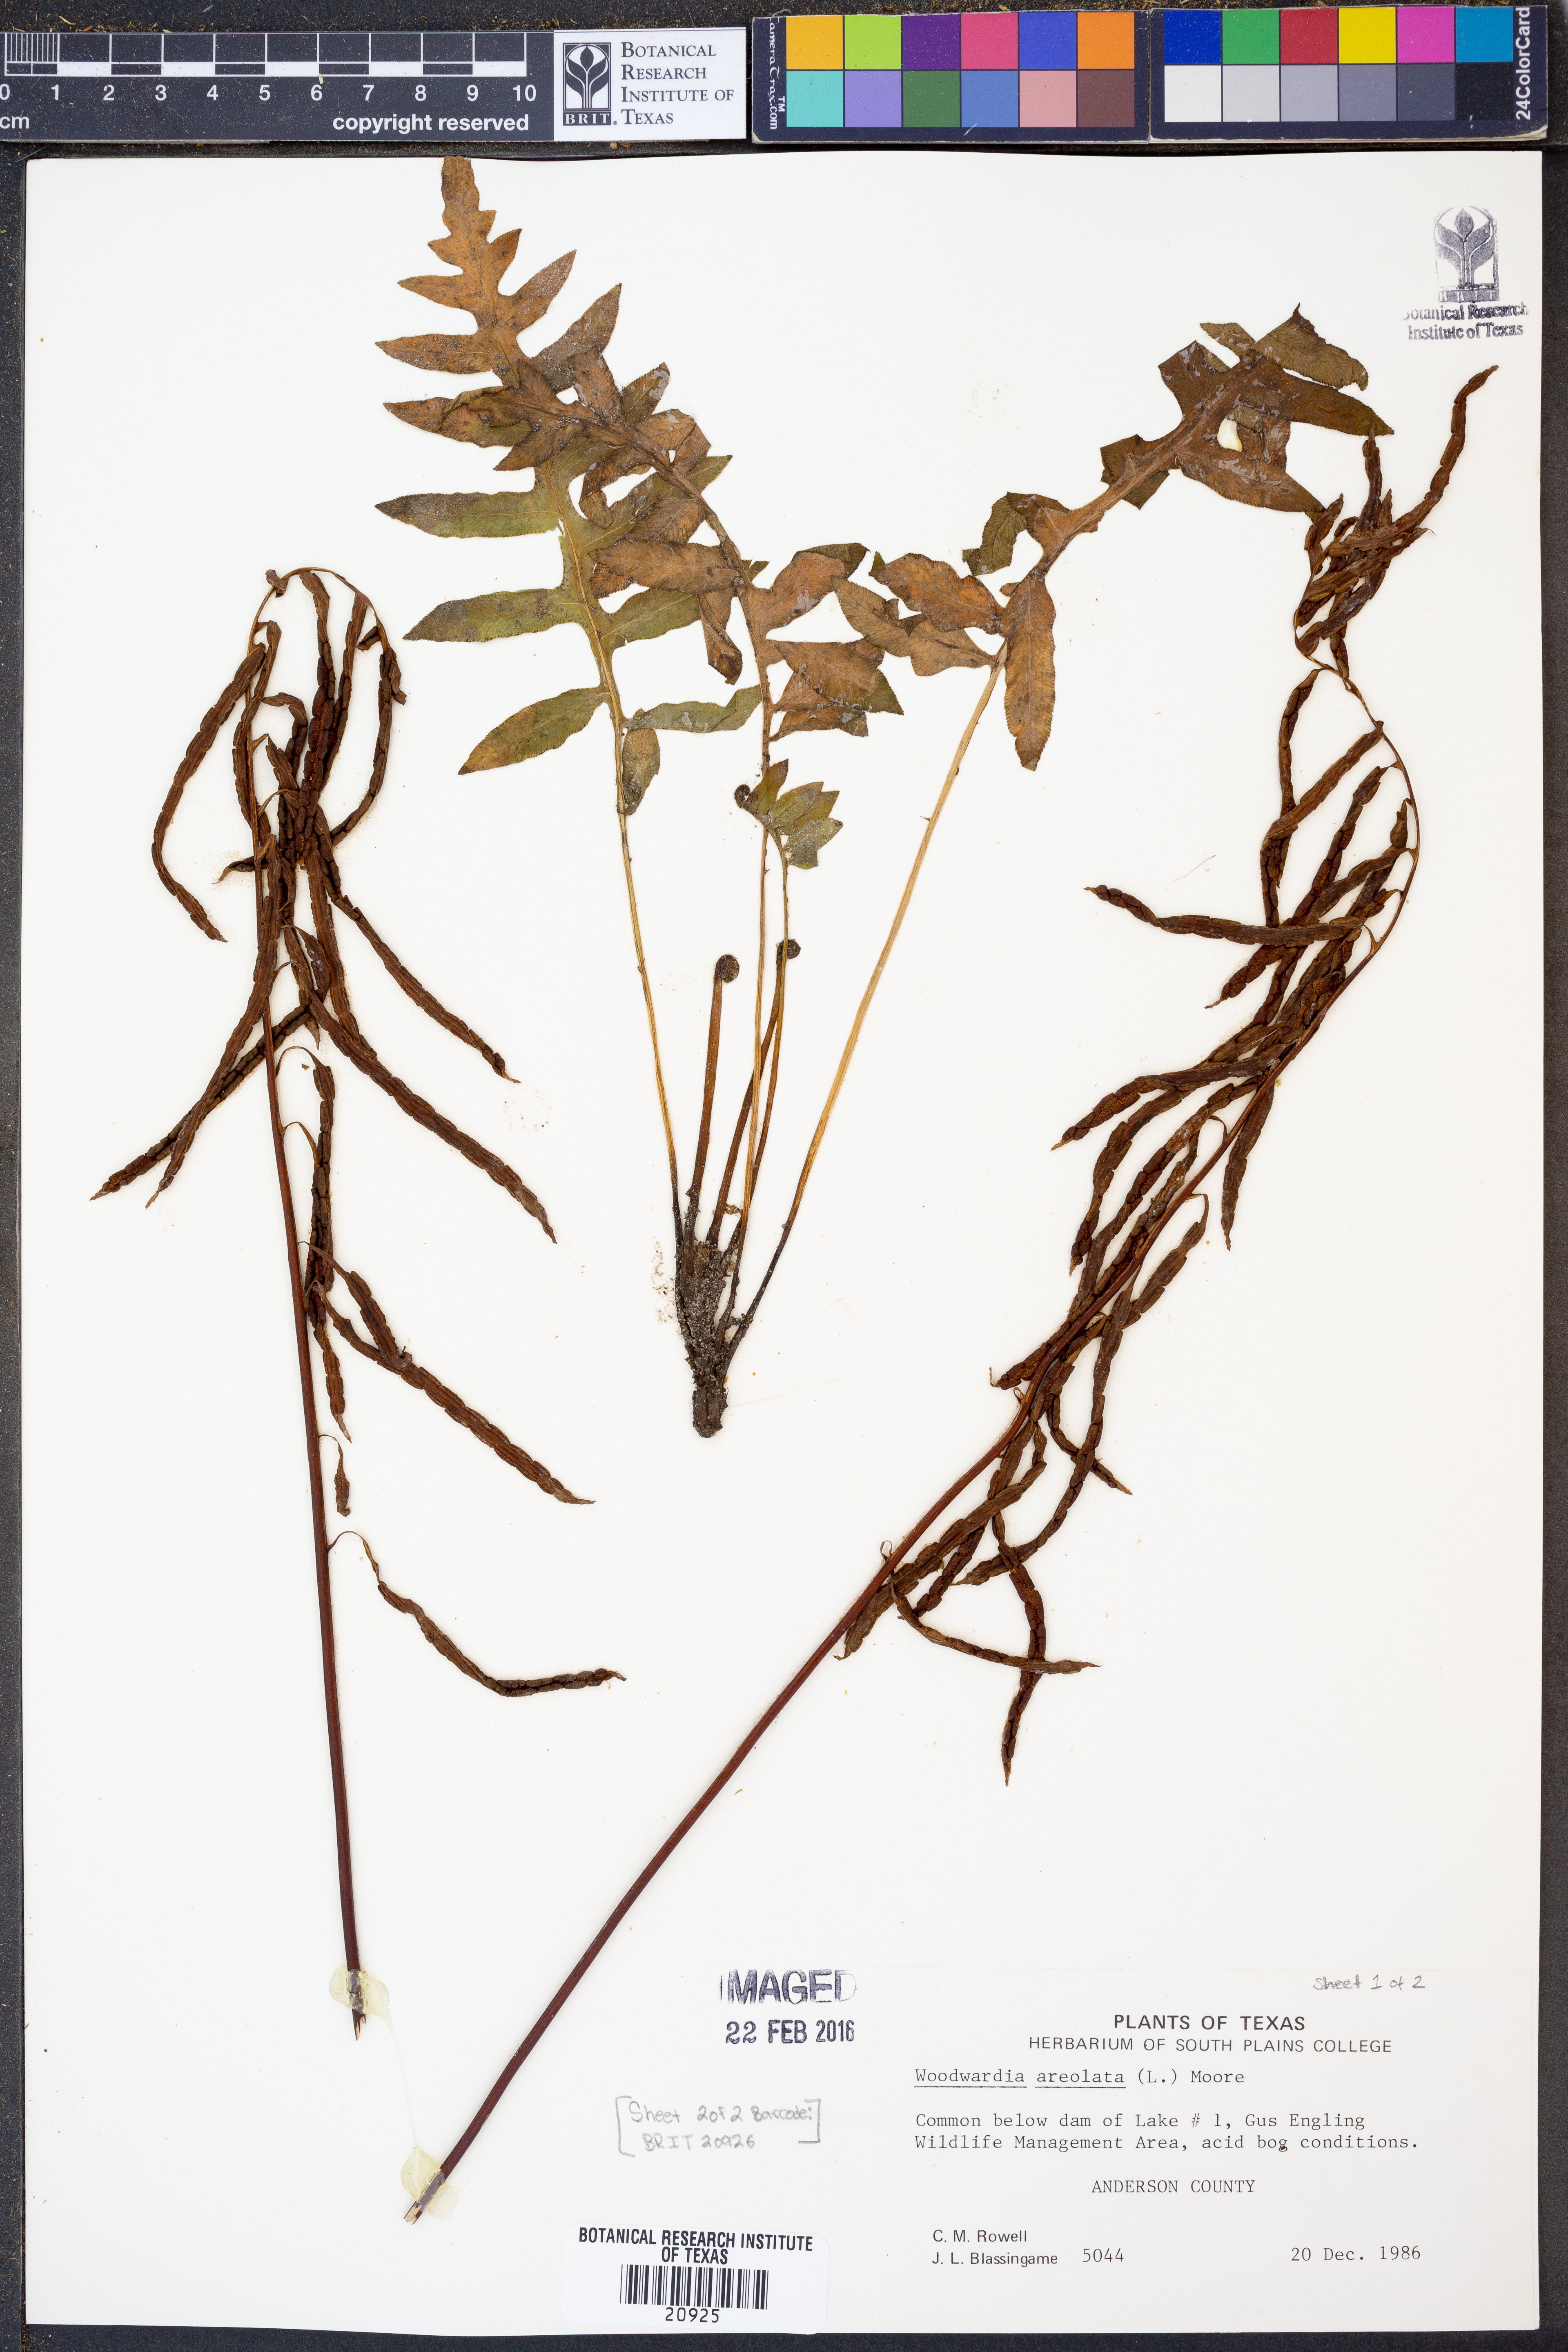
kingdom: Plantae
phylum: Tracheophyta
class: Polypodiopsida
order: Polypodiales
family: Blechnaceae
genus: Lorinseria
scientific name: Lorinseria areolata
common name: Dwarf chain fern
